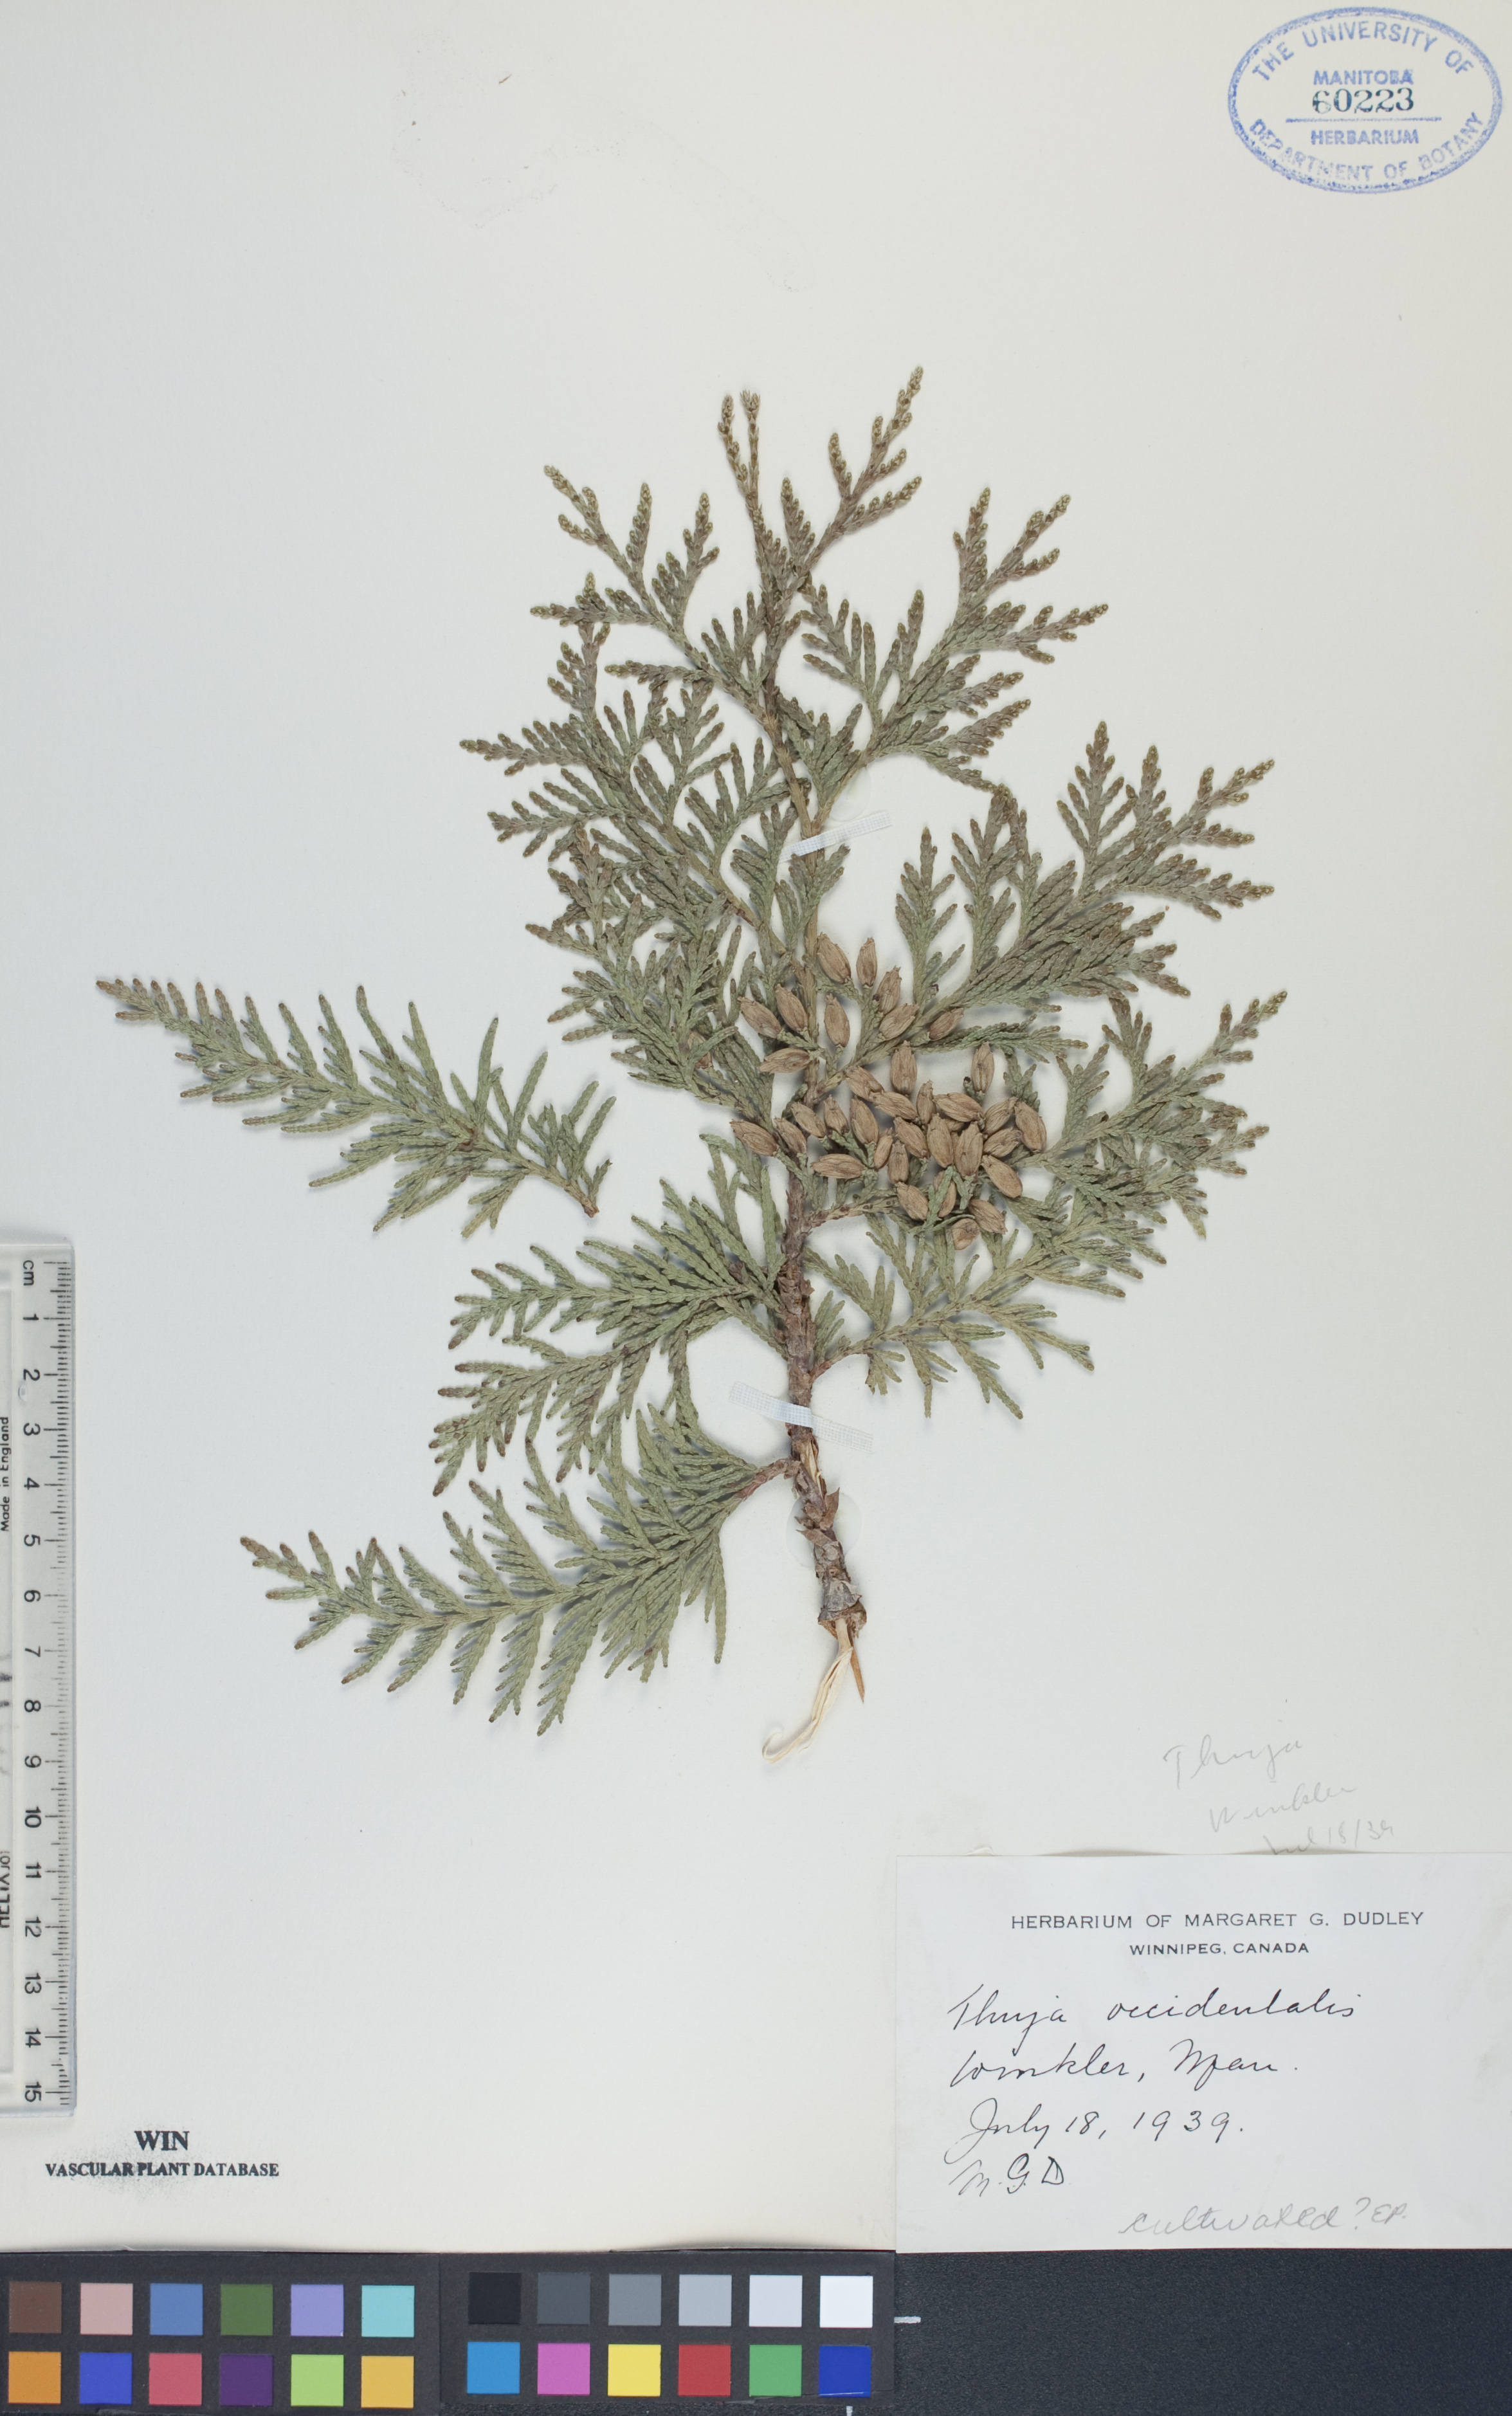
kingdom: Plantae
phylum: Tracheophyta
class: Pinopsida
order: Pinales
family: Cupressaceae
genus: Thuja
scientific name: Thuja occidentalis
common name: Northern white-cedar
